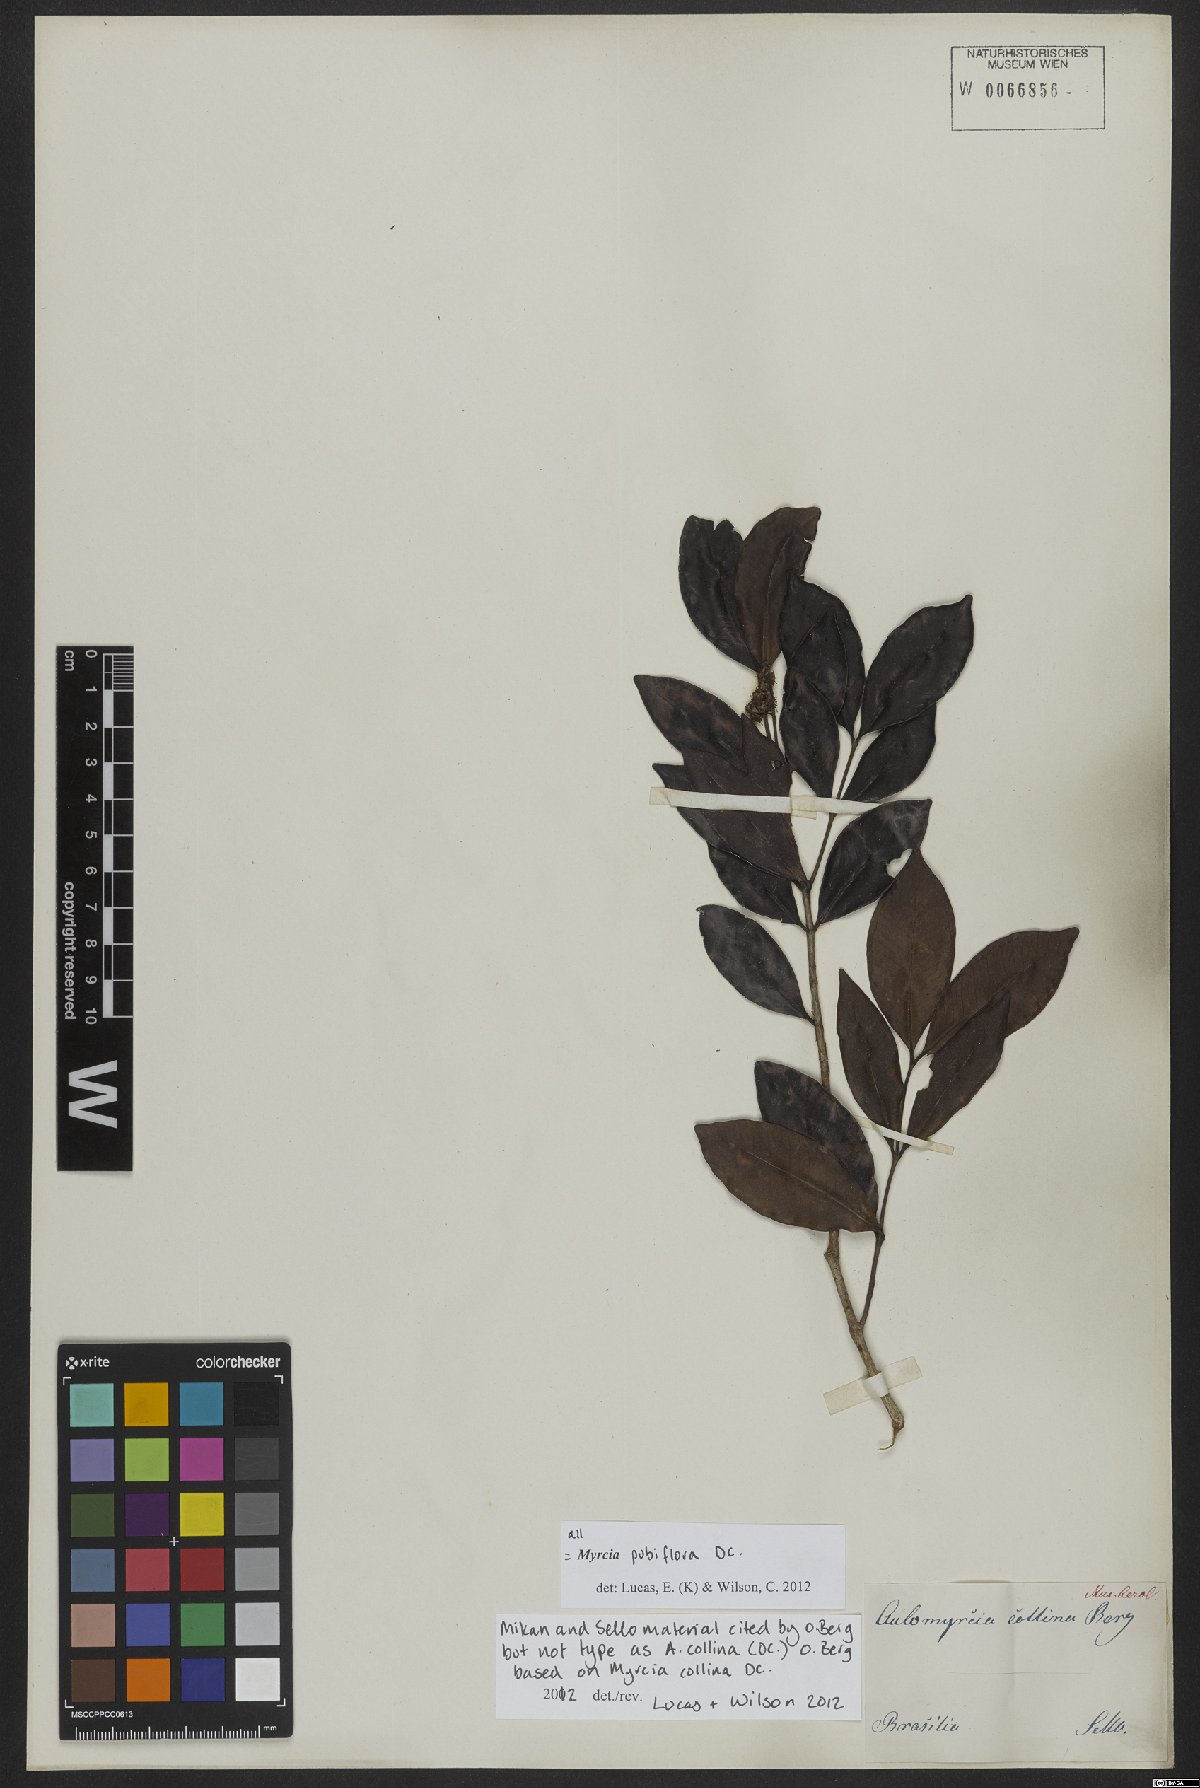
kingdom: Plantae
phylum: Tracheophyta
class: Magnoliopsida
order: Myrtales
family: Myrtaceae
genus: Myrcia
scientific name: Myrcia pubiflora
